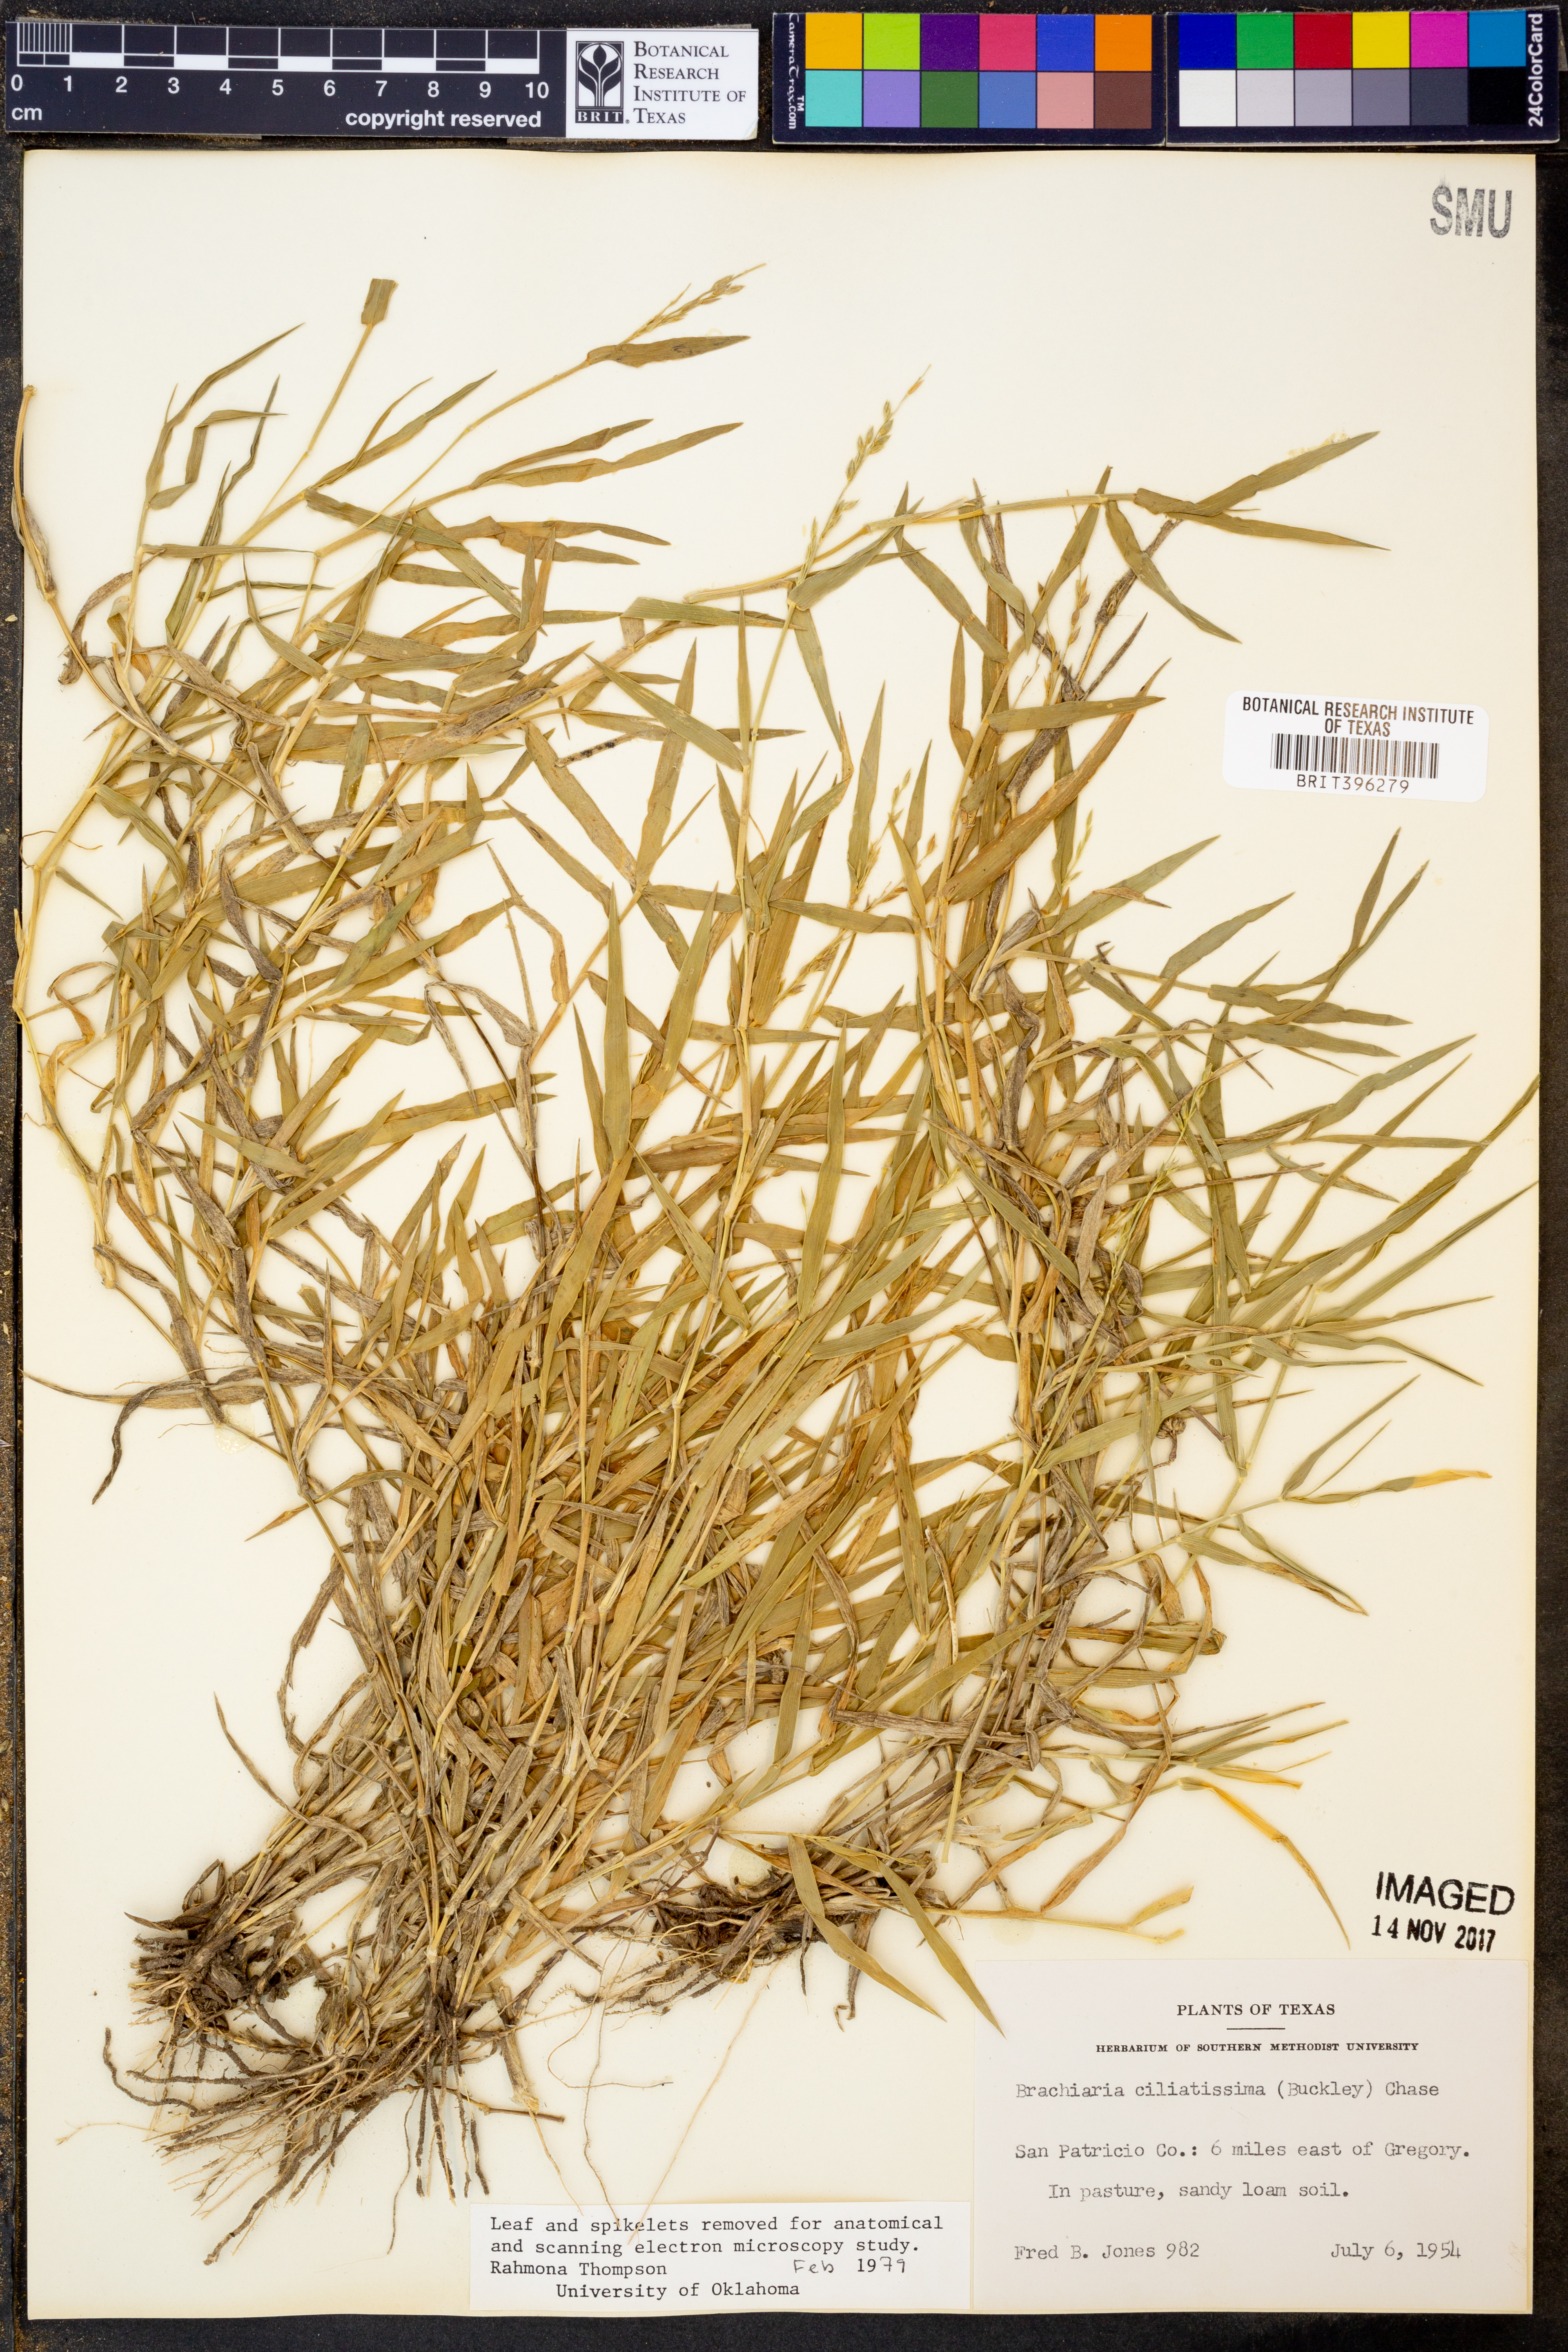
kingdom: Plantae
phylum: Tracheophyta
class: Liliopsida
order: Poales
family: Poaceae
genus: Urochloa
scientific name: Urochloa ciliatissima
